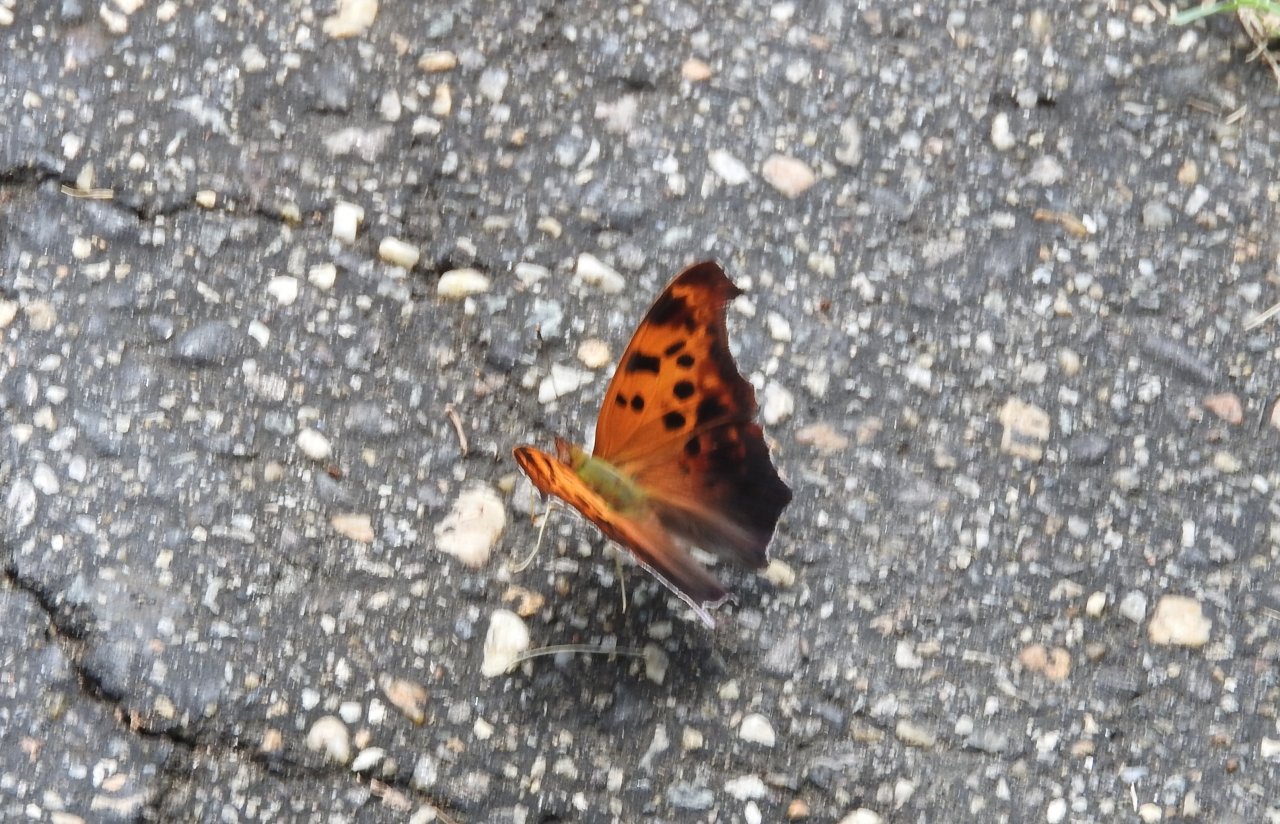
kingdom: Animalia
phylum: Arthropoda
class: Insecta
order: Lepidoptera
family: Nymphalidae
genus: Polygonia
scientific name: Polygonia interrogationis
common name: Question Mark
